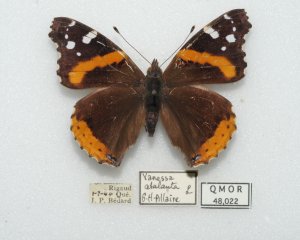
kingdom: Animalia
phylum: Arthropoda
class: Insecta
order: Lepidoptera
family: Nymphalidae
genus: Vanessa
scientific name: Vanessa atalanta
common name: Red Admiral
